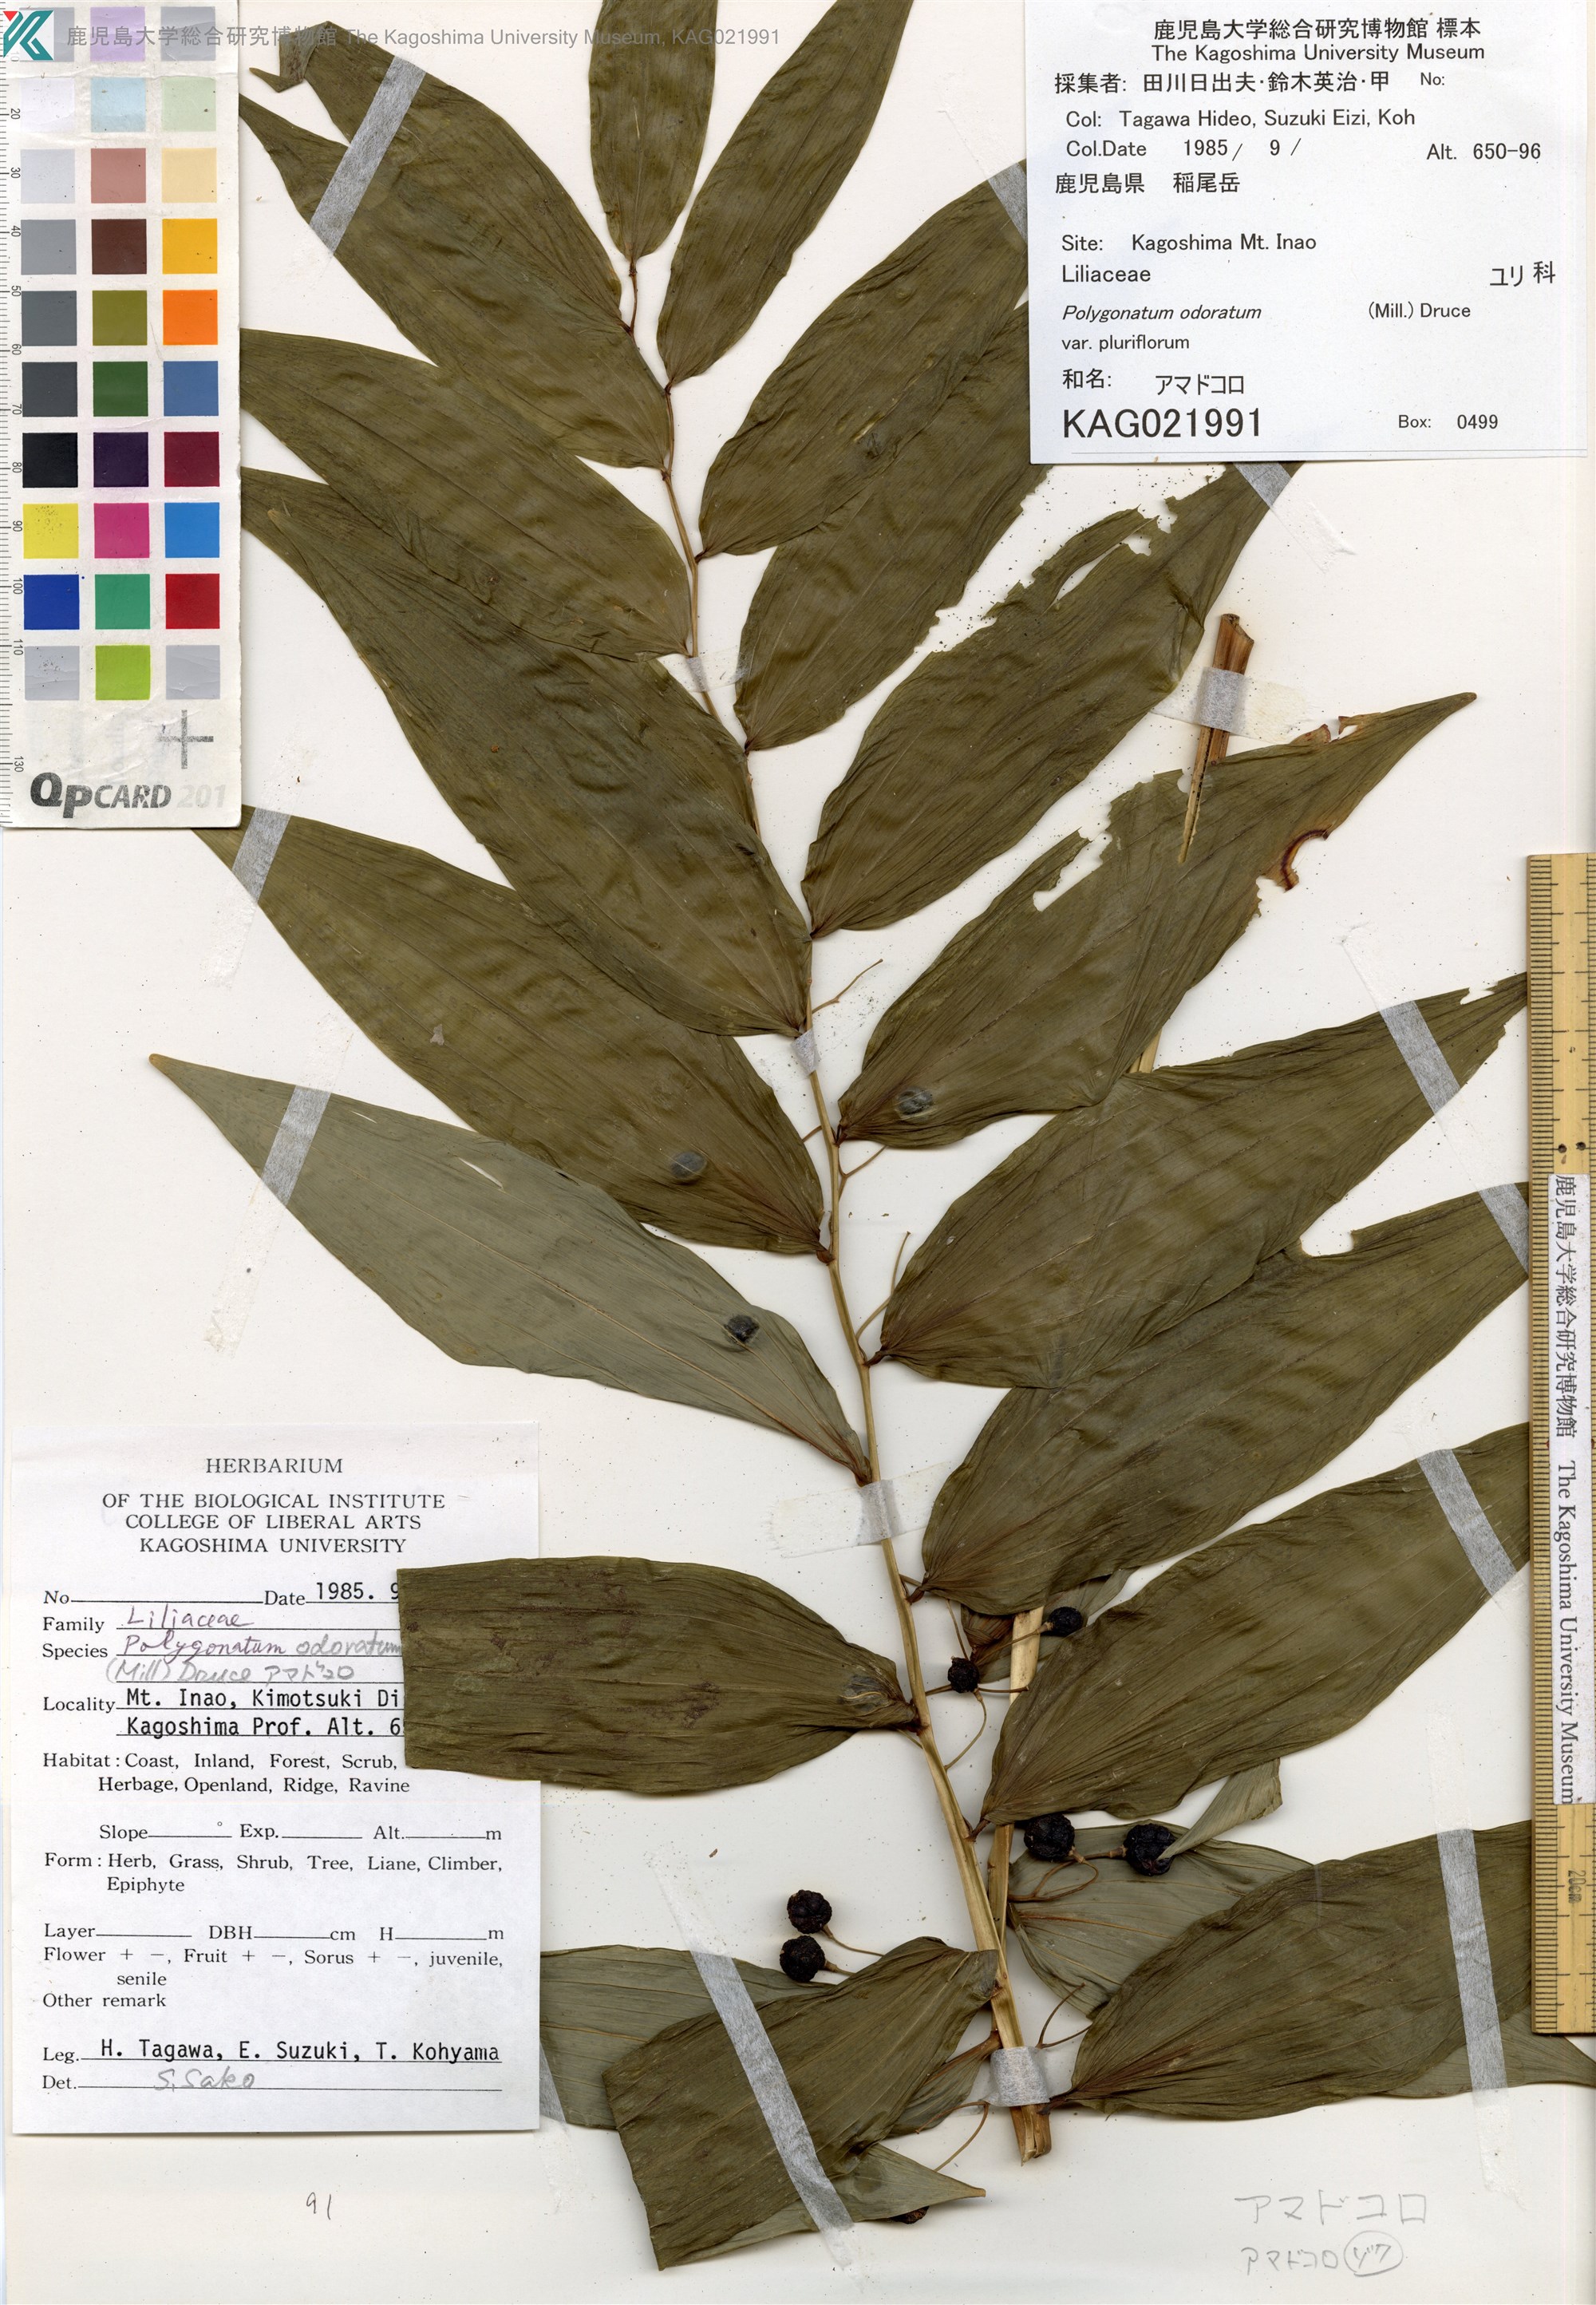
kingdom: Plantae
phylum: Tracheophyta
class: Liliopsida
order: Asparagales
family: Asparagaceae
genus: Polygonatum
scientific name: Polygonatum odoratum
